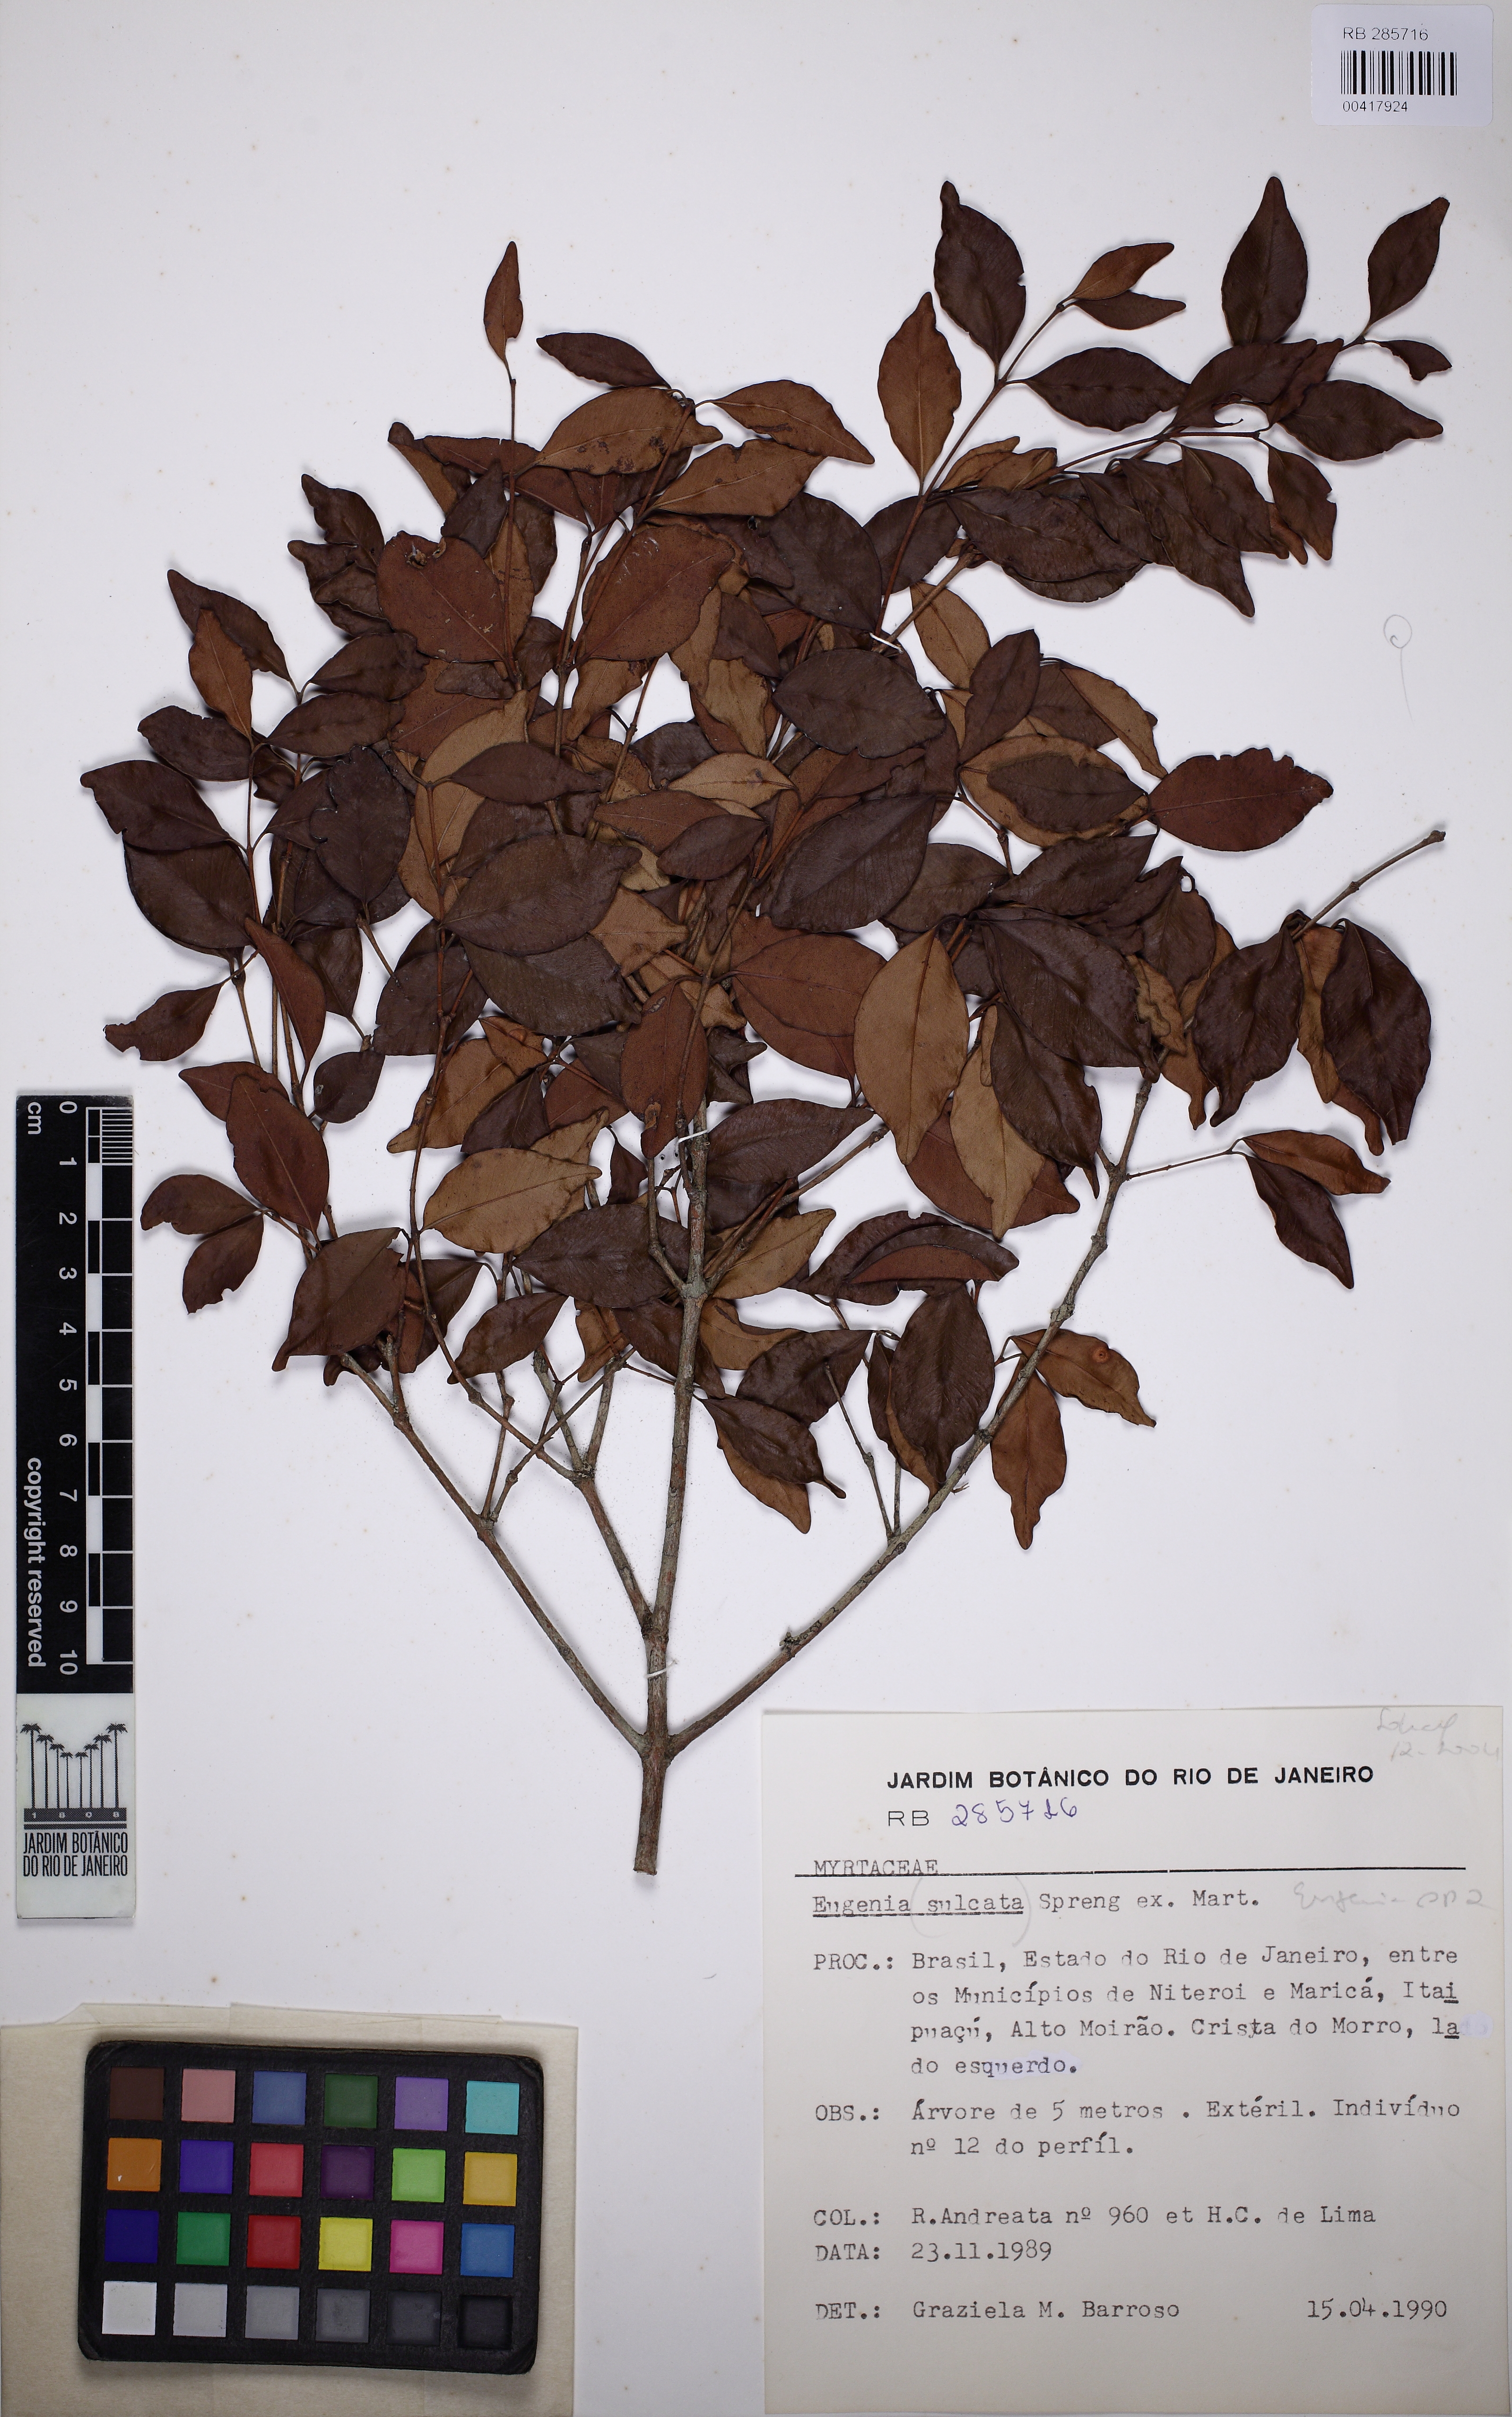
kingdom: Plantae
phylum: Tracheophyta
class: Magnoliopsida
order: Myrtales
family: Myrtaceae
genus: Eugenia
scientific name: Eugenia sulcata
